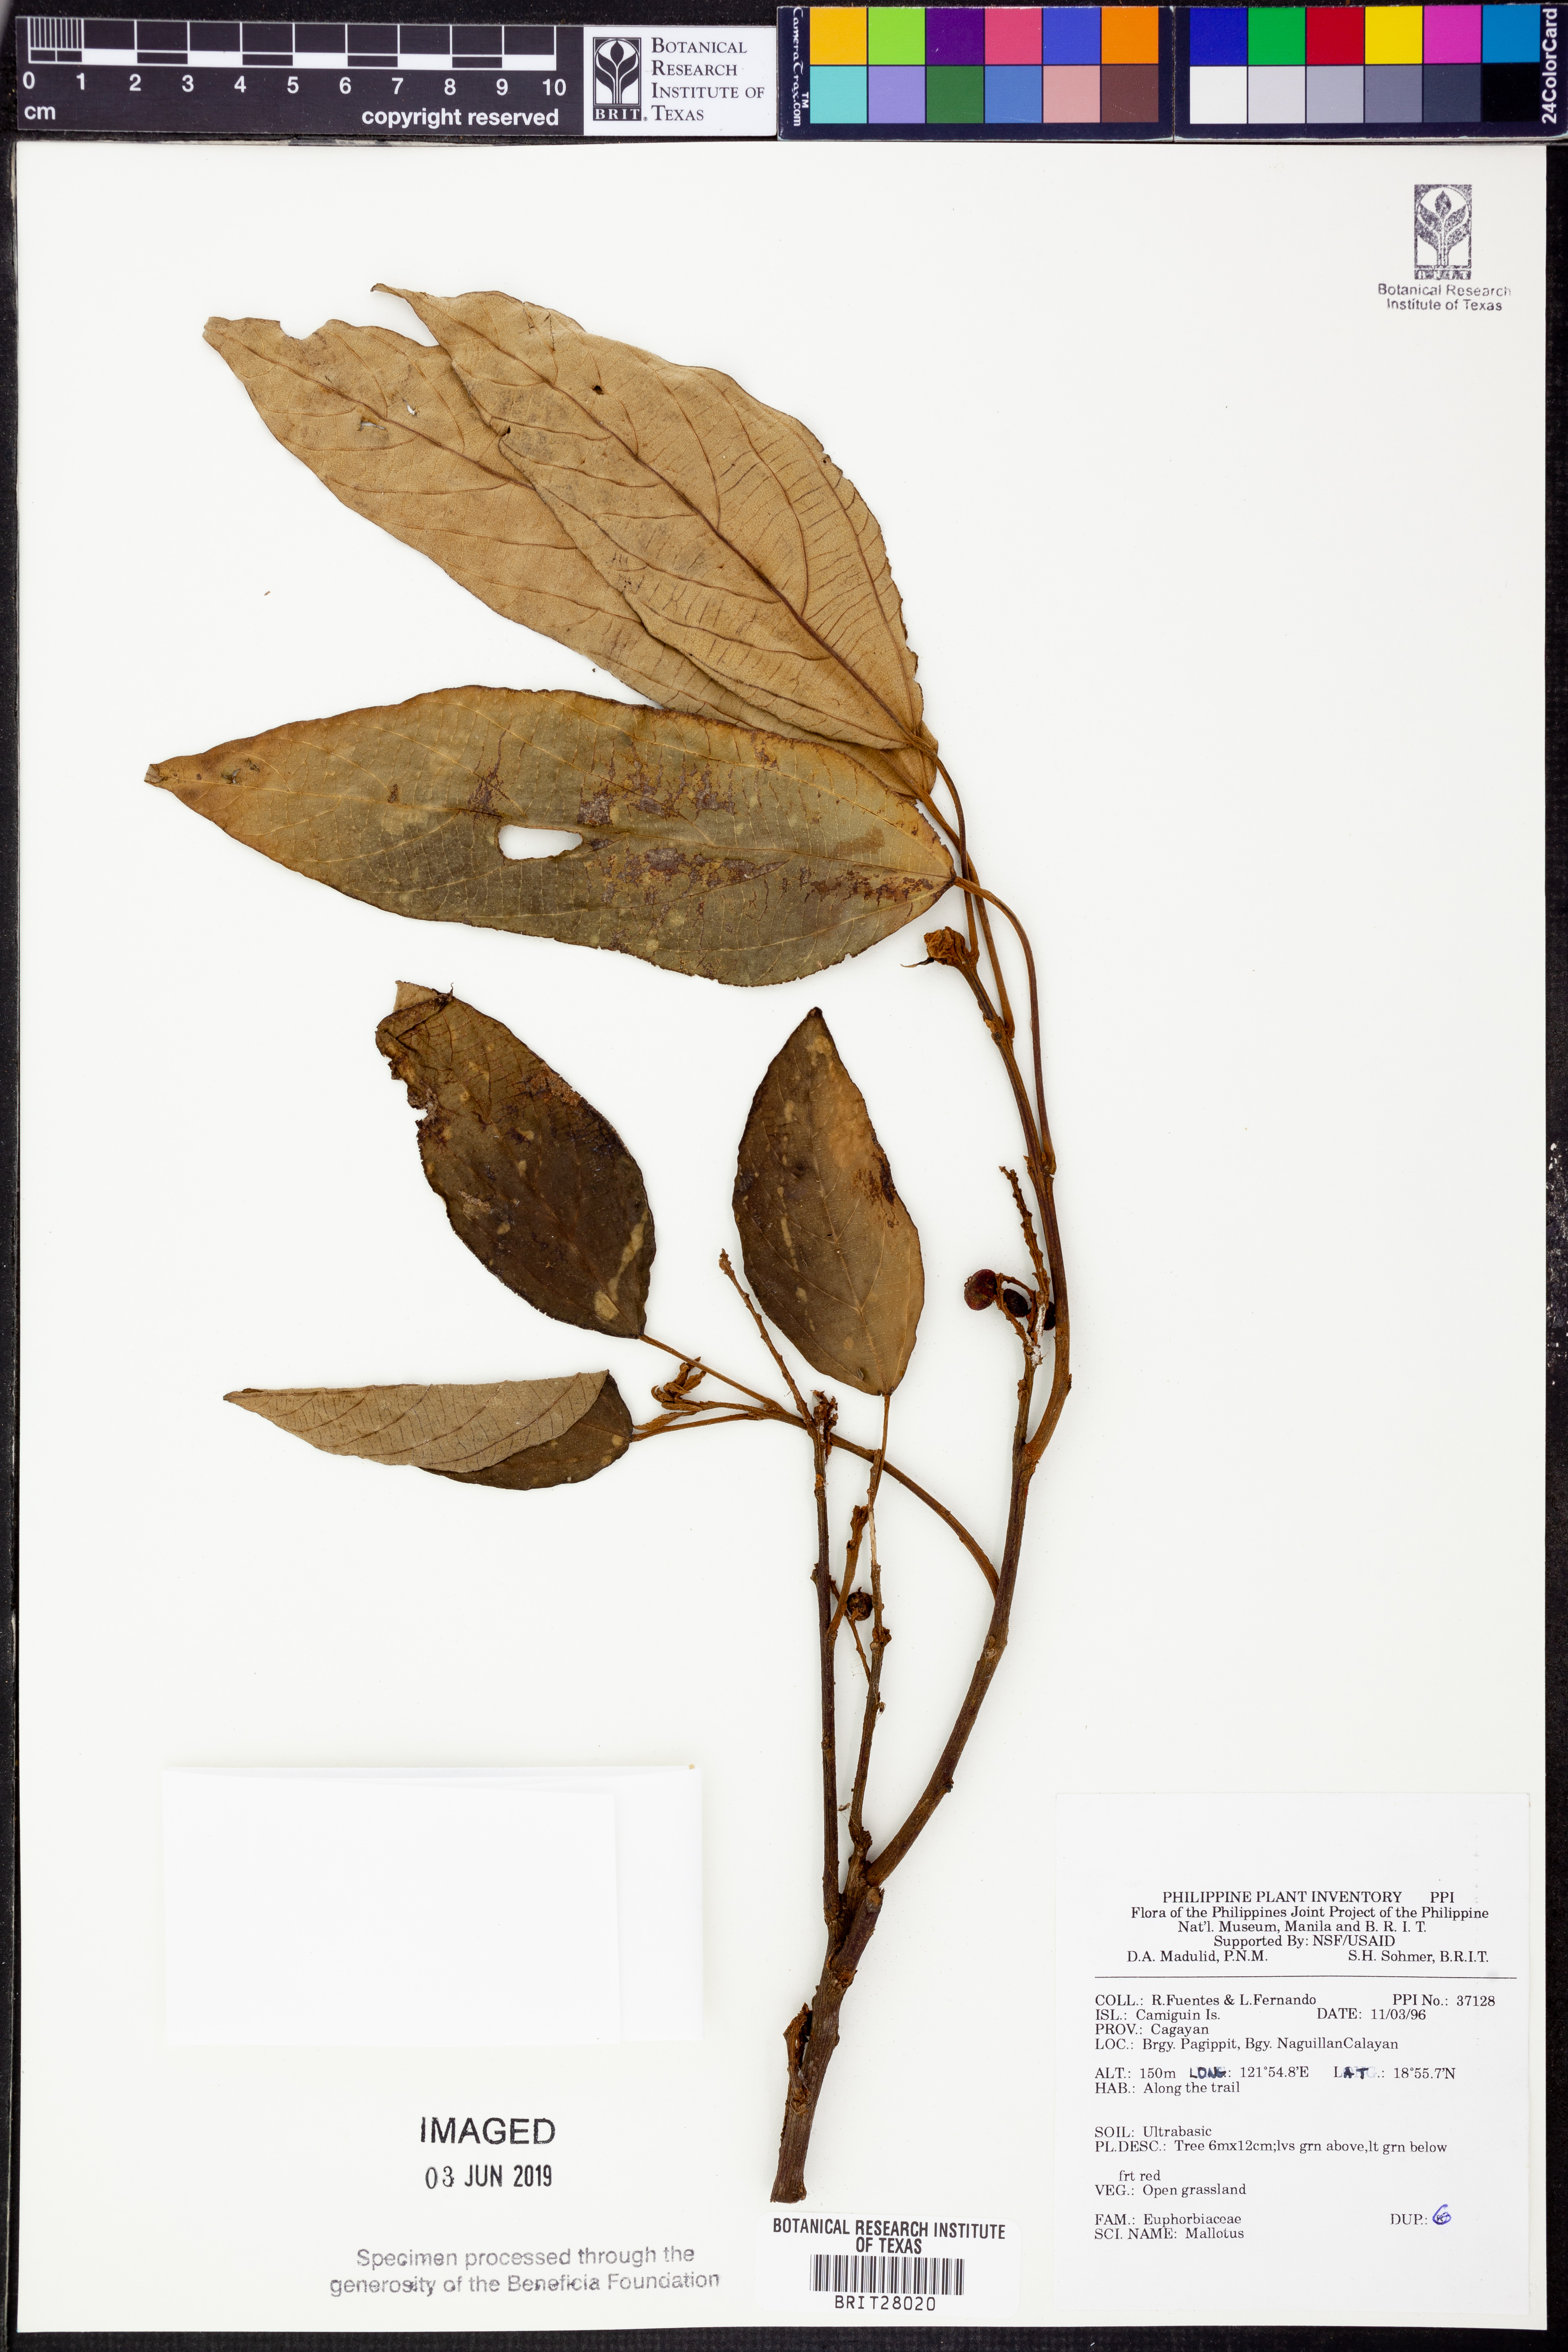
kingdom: Plantae
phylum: Tracheophyta
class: Magnoliopsida
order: Malpighiales
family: Euphorbiaceae
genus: Mallotus
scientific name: Mallotus
